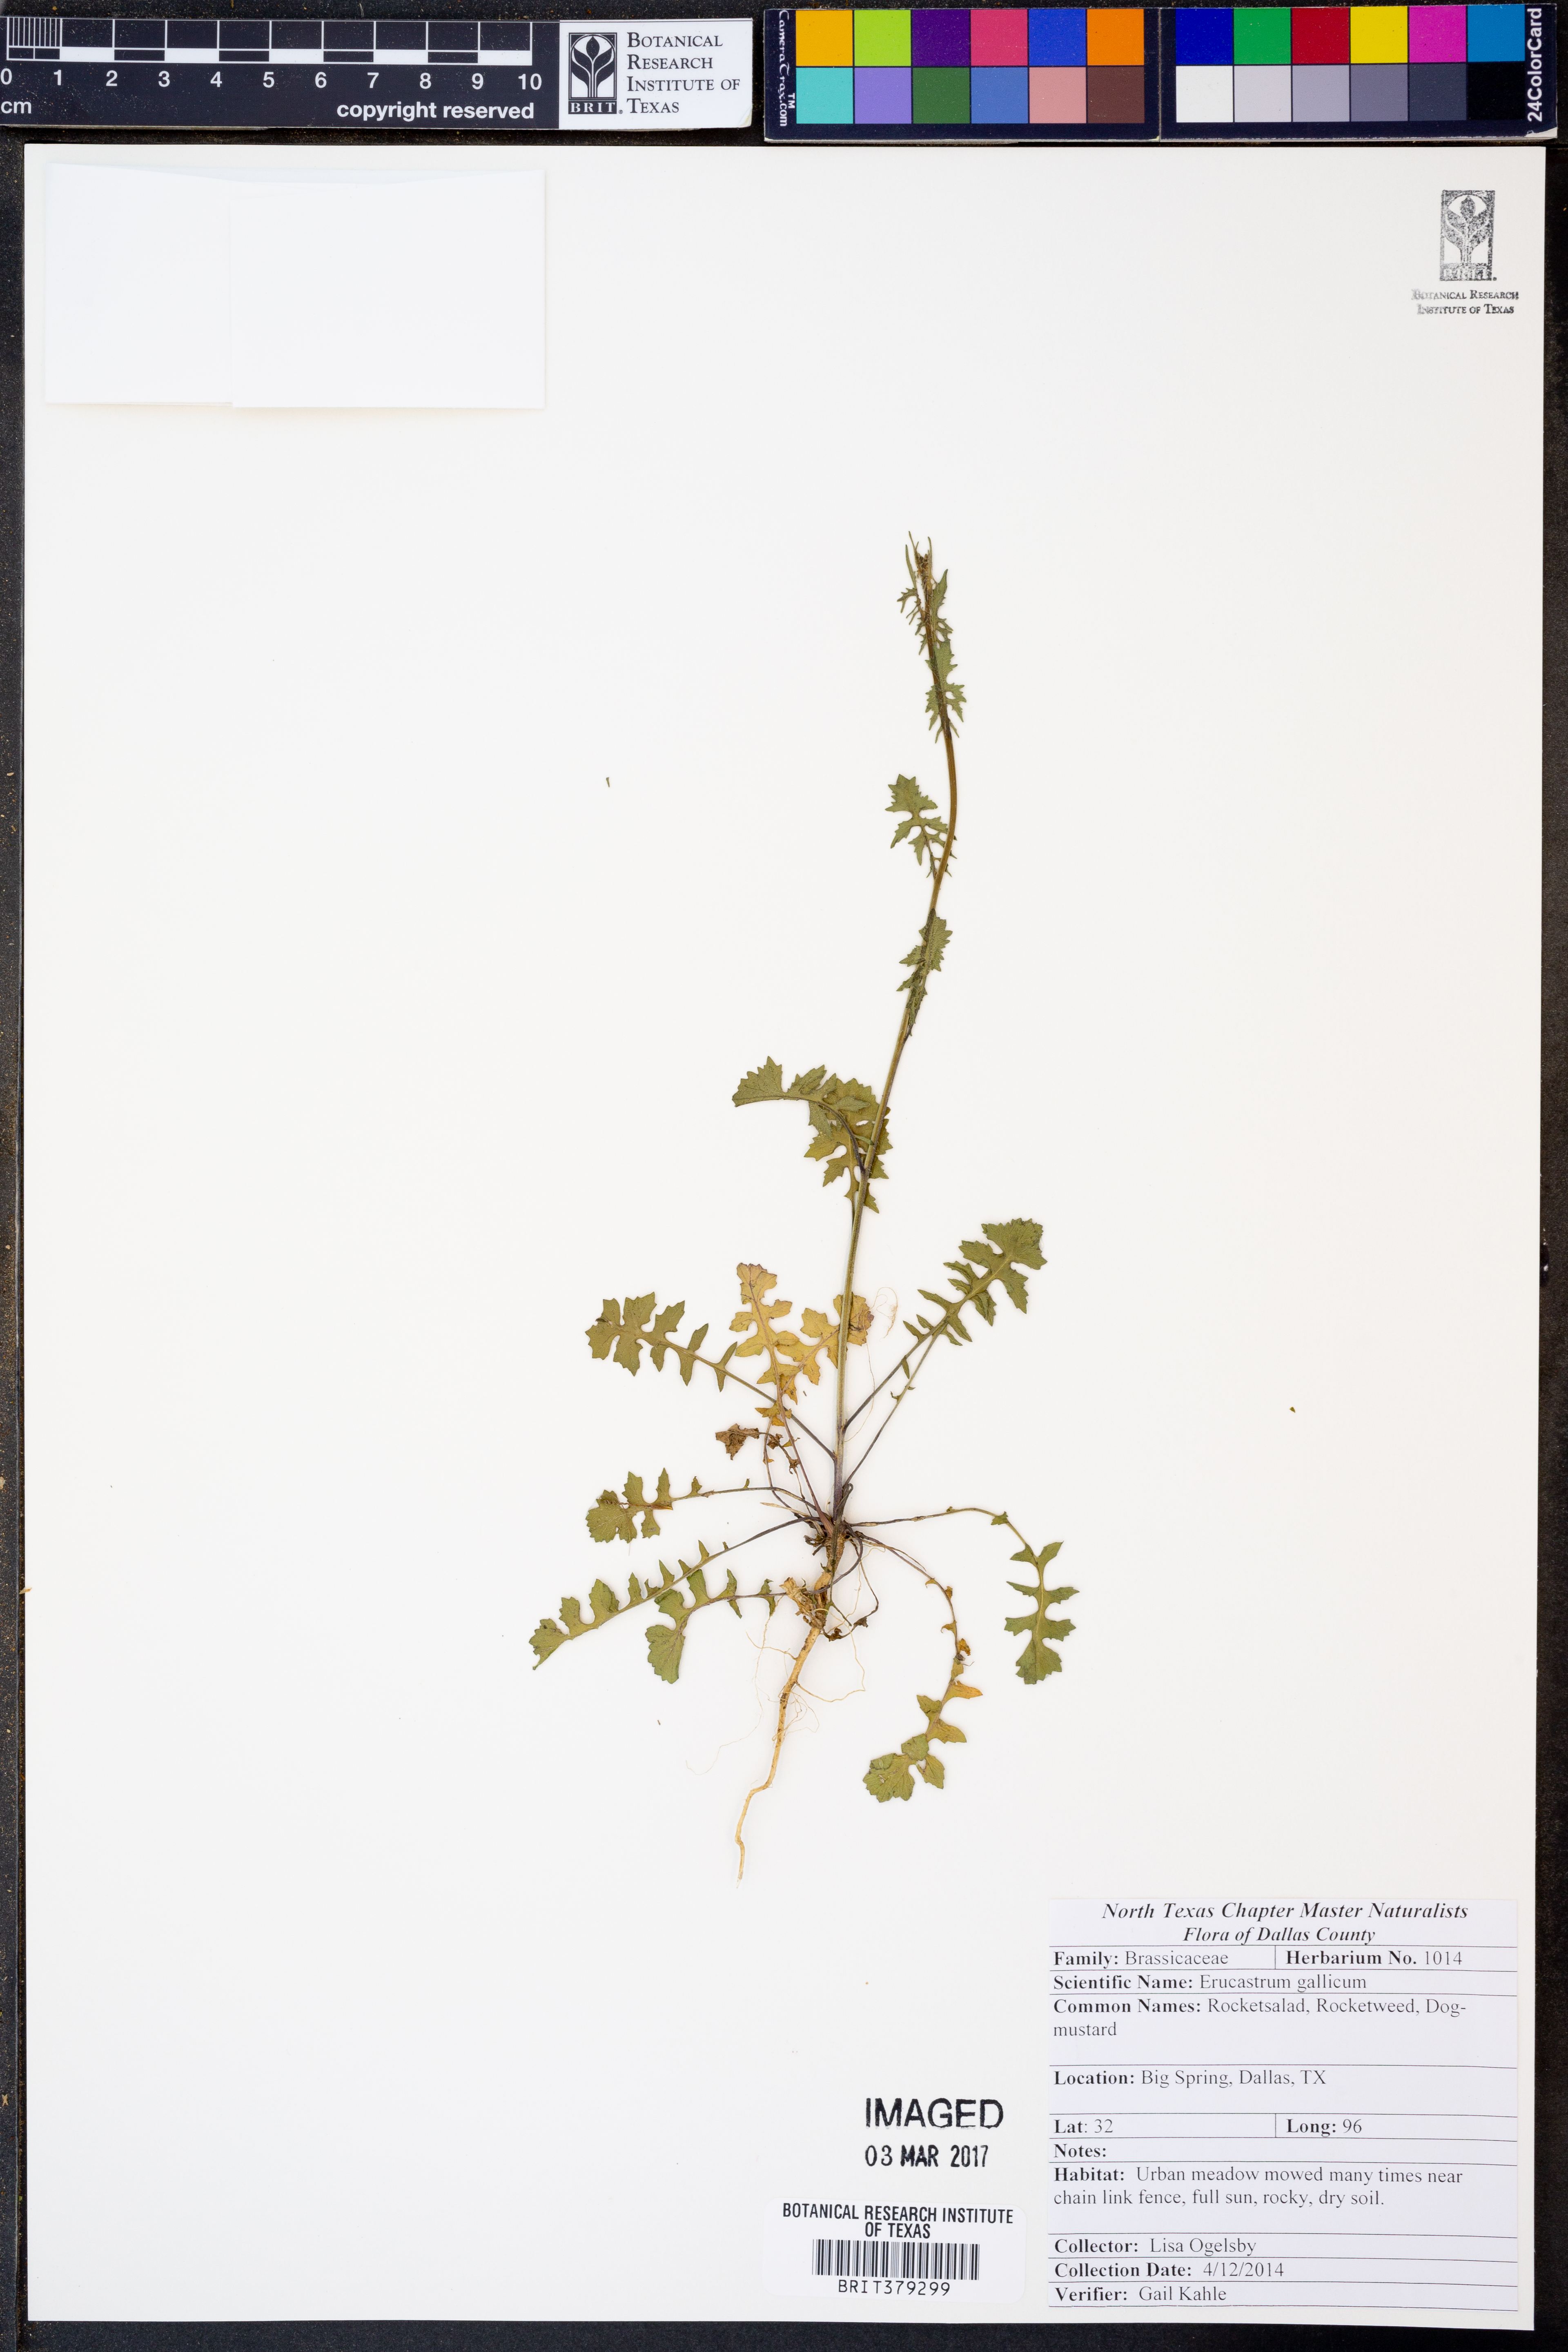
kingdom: Plantae
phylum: Tracheophyta
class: Magnoliopsida
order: Brassicales
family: Brassicaceae
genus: Erucastrum
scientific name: Erucastrum gallicum
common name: Hairy rocket
